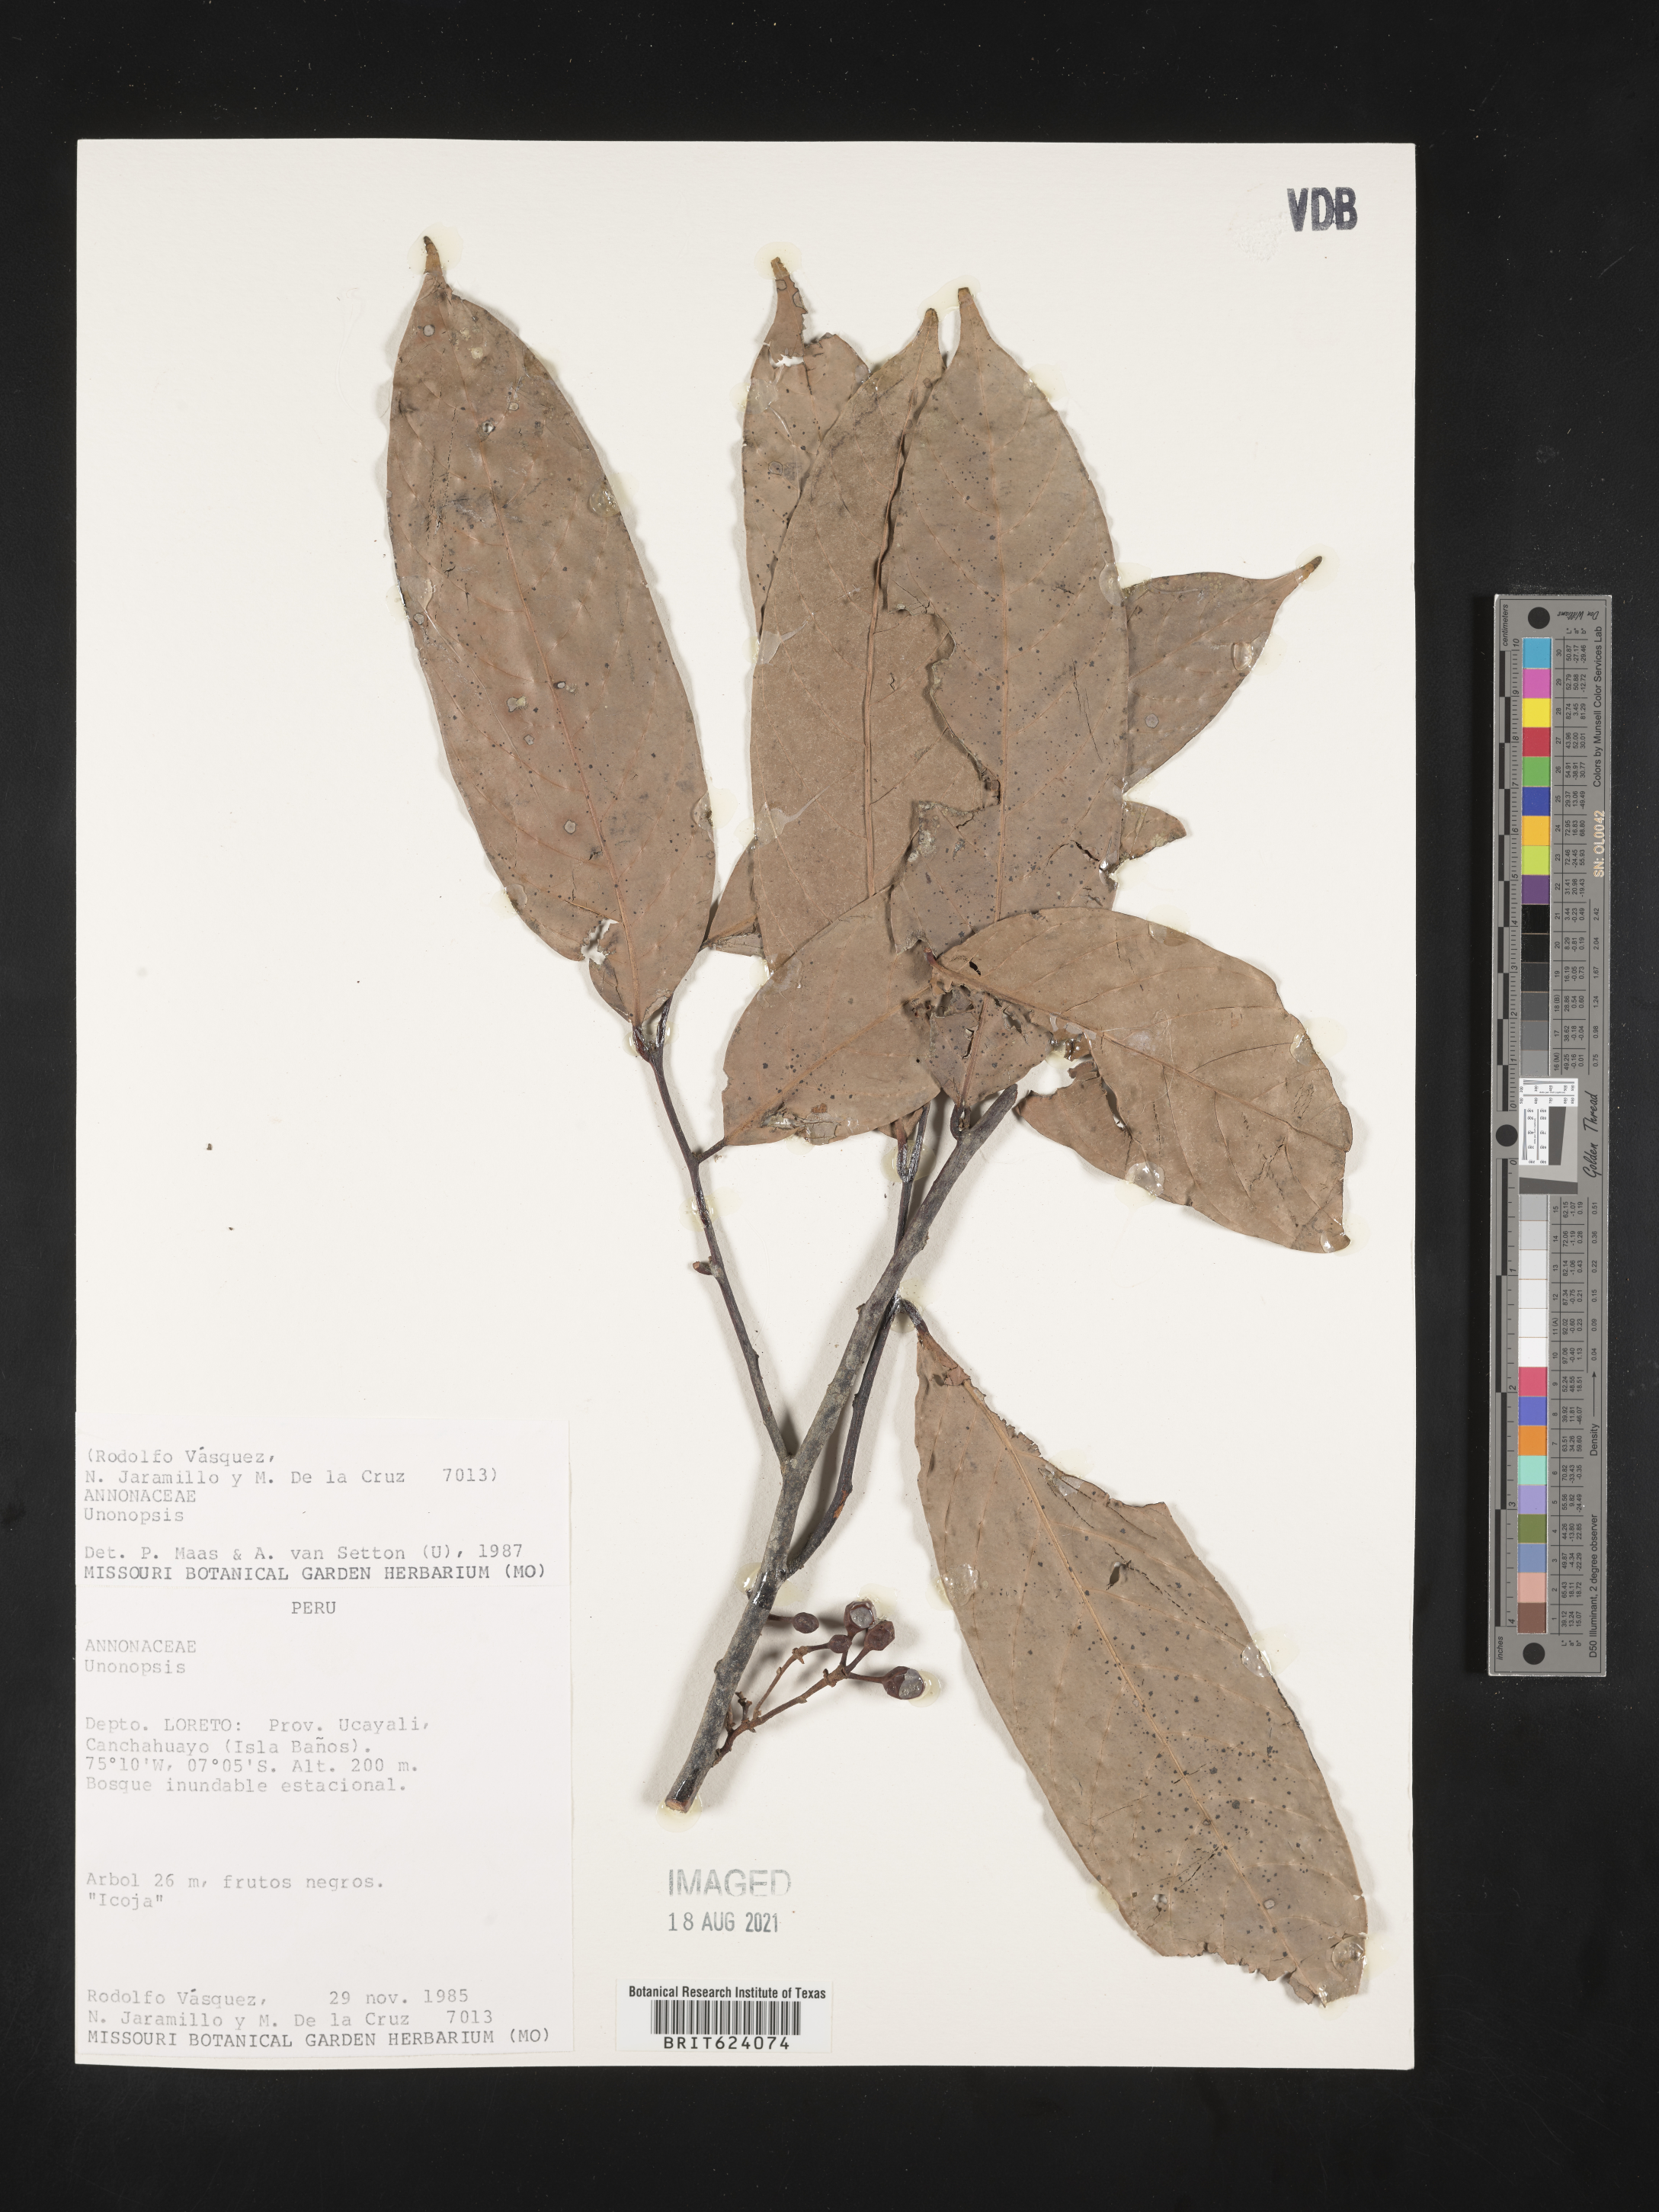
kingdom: Plantae
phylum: Tracheophyta
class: Magnoliopsida
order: Magnoliales
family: Annonaceae
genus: Unonopsis
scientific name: Unonopsis
